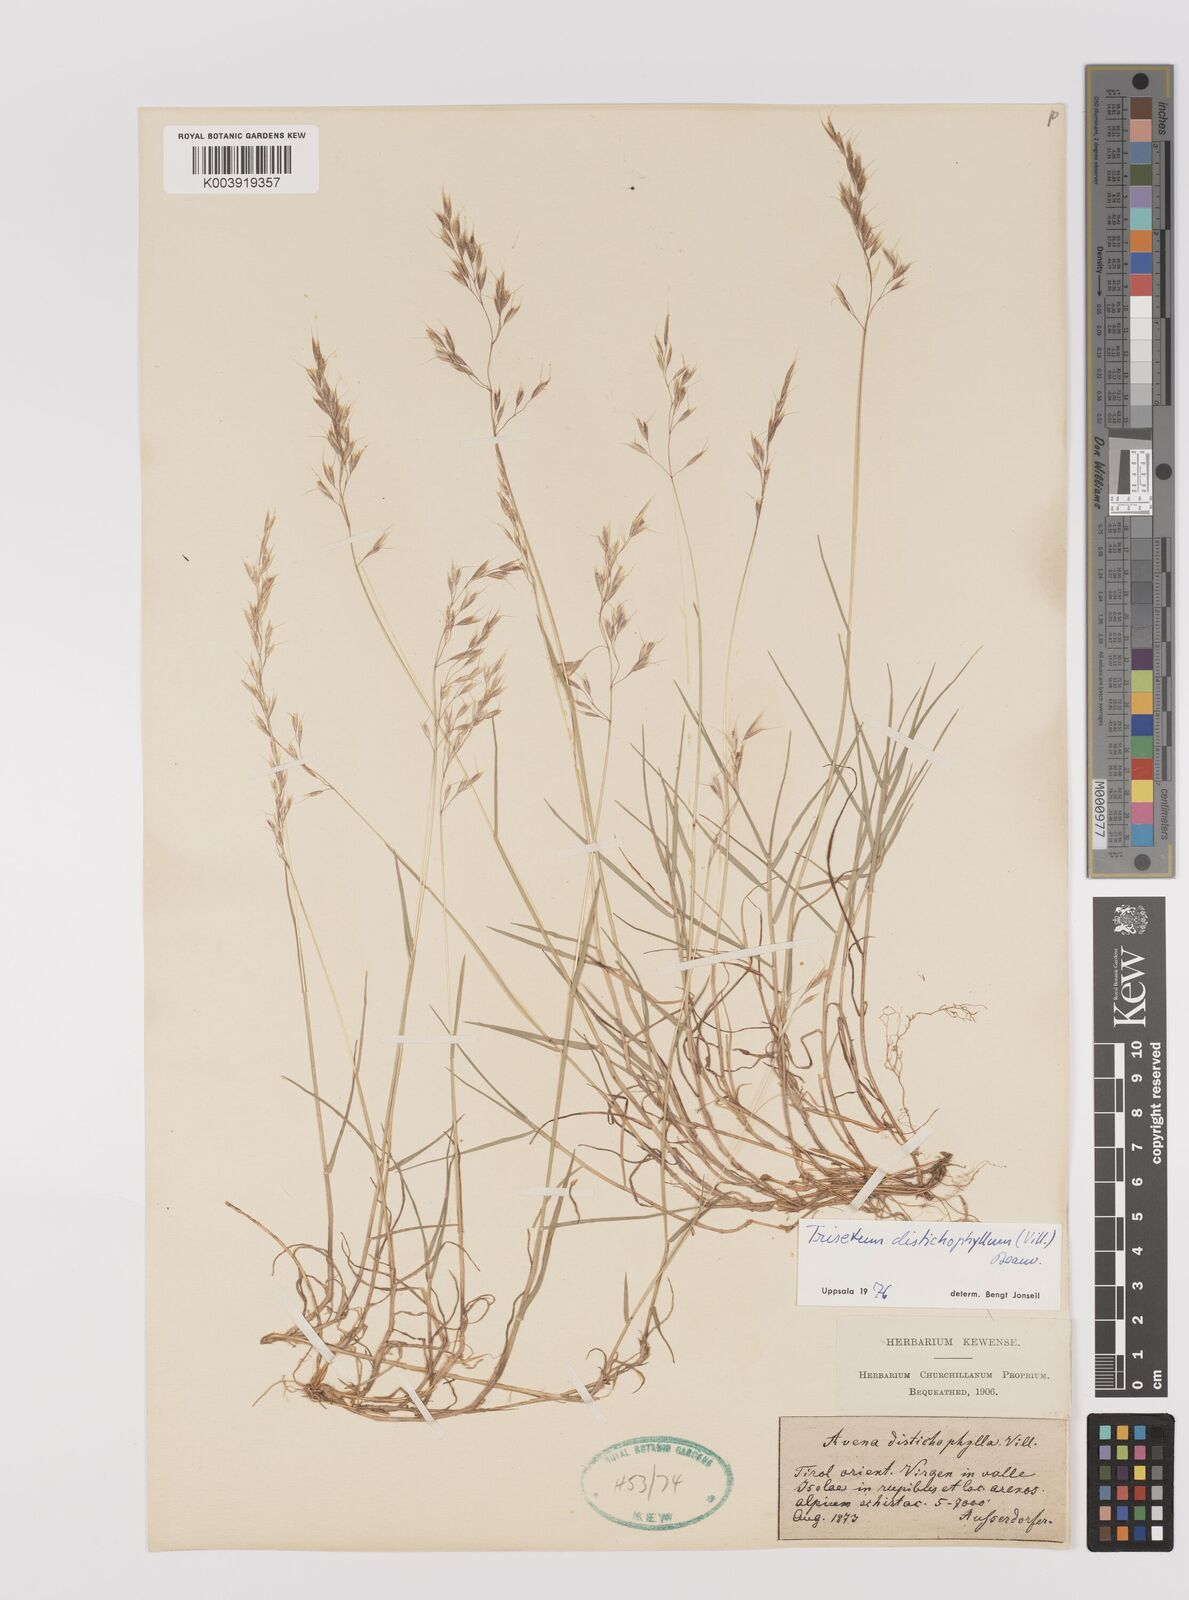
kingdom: Plantae
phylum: Tracheophyta
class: Liliopsida
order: Poales
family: Poaceae
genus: Acrospelion
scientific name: Acrospelion distichophyllum
